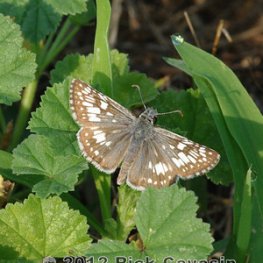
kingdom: Animalia
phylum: Arthropoda
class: Insecta
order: Lepidoptera
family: Hesperiidae
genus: Pyrgus
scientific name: Pyrgus communis
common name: Common Checkered-Skipper
